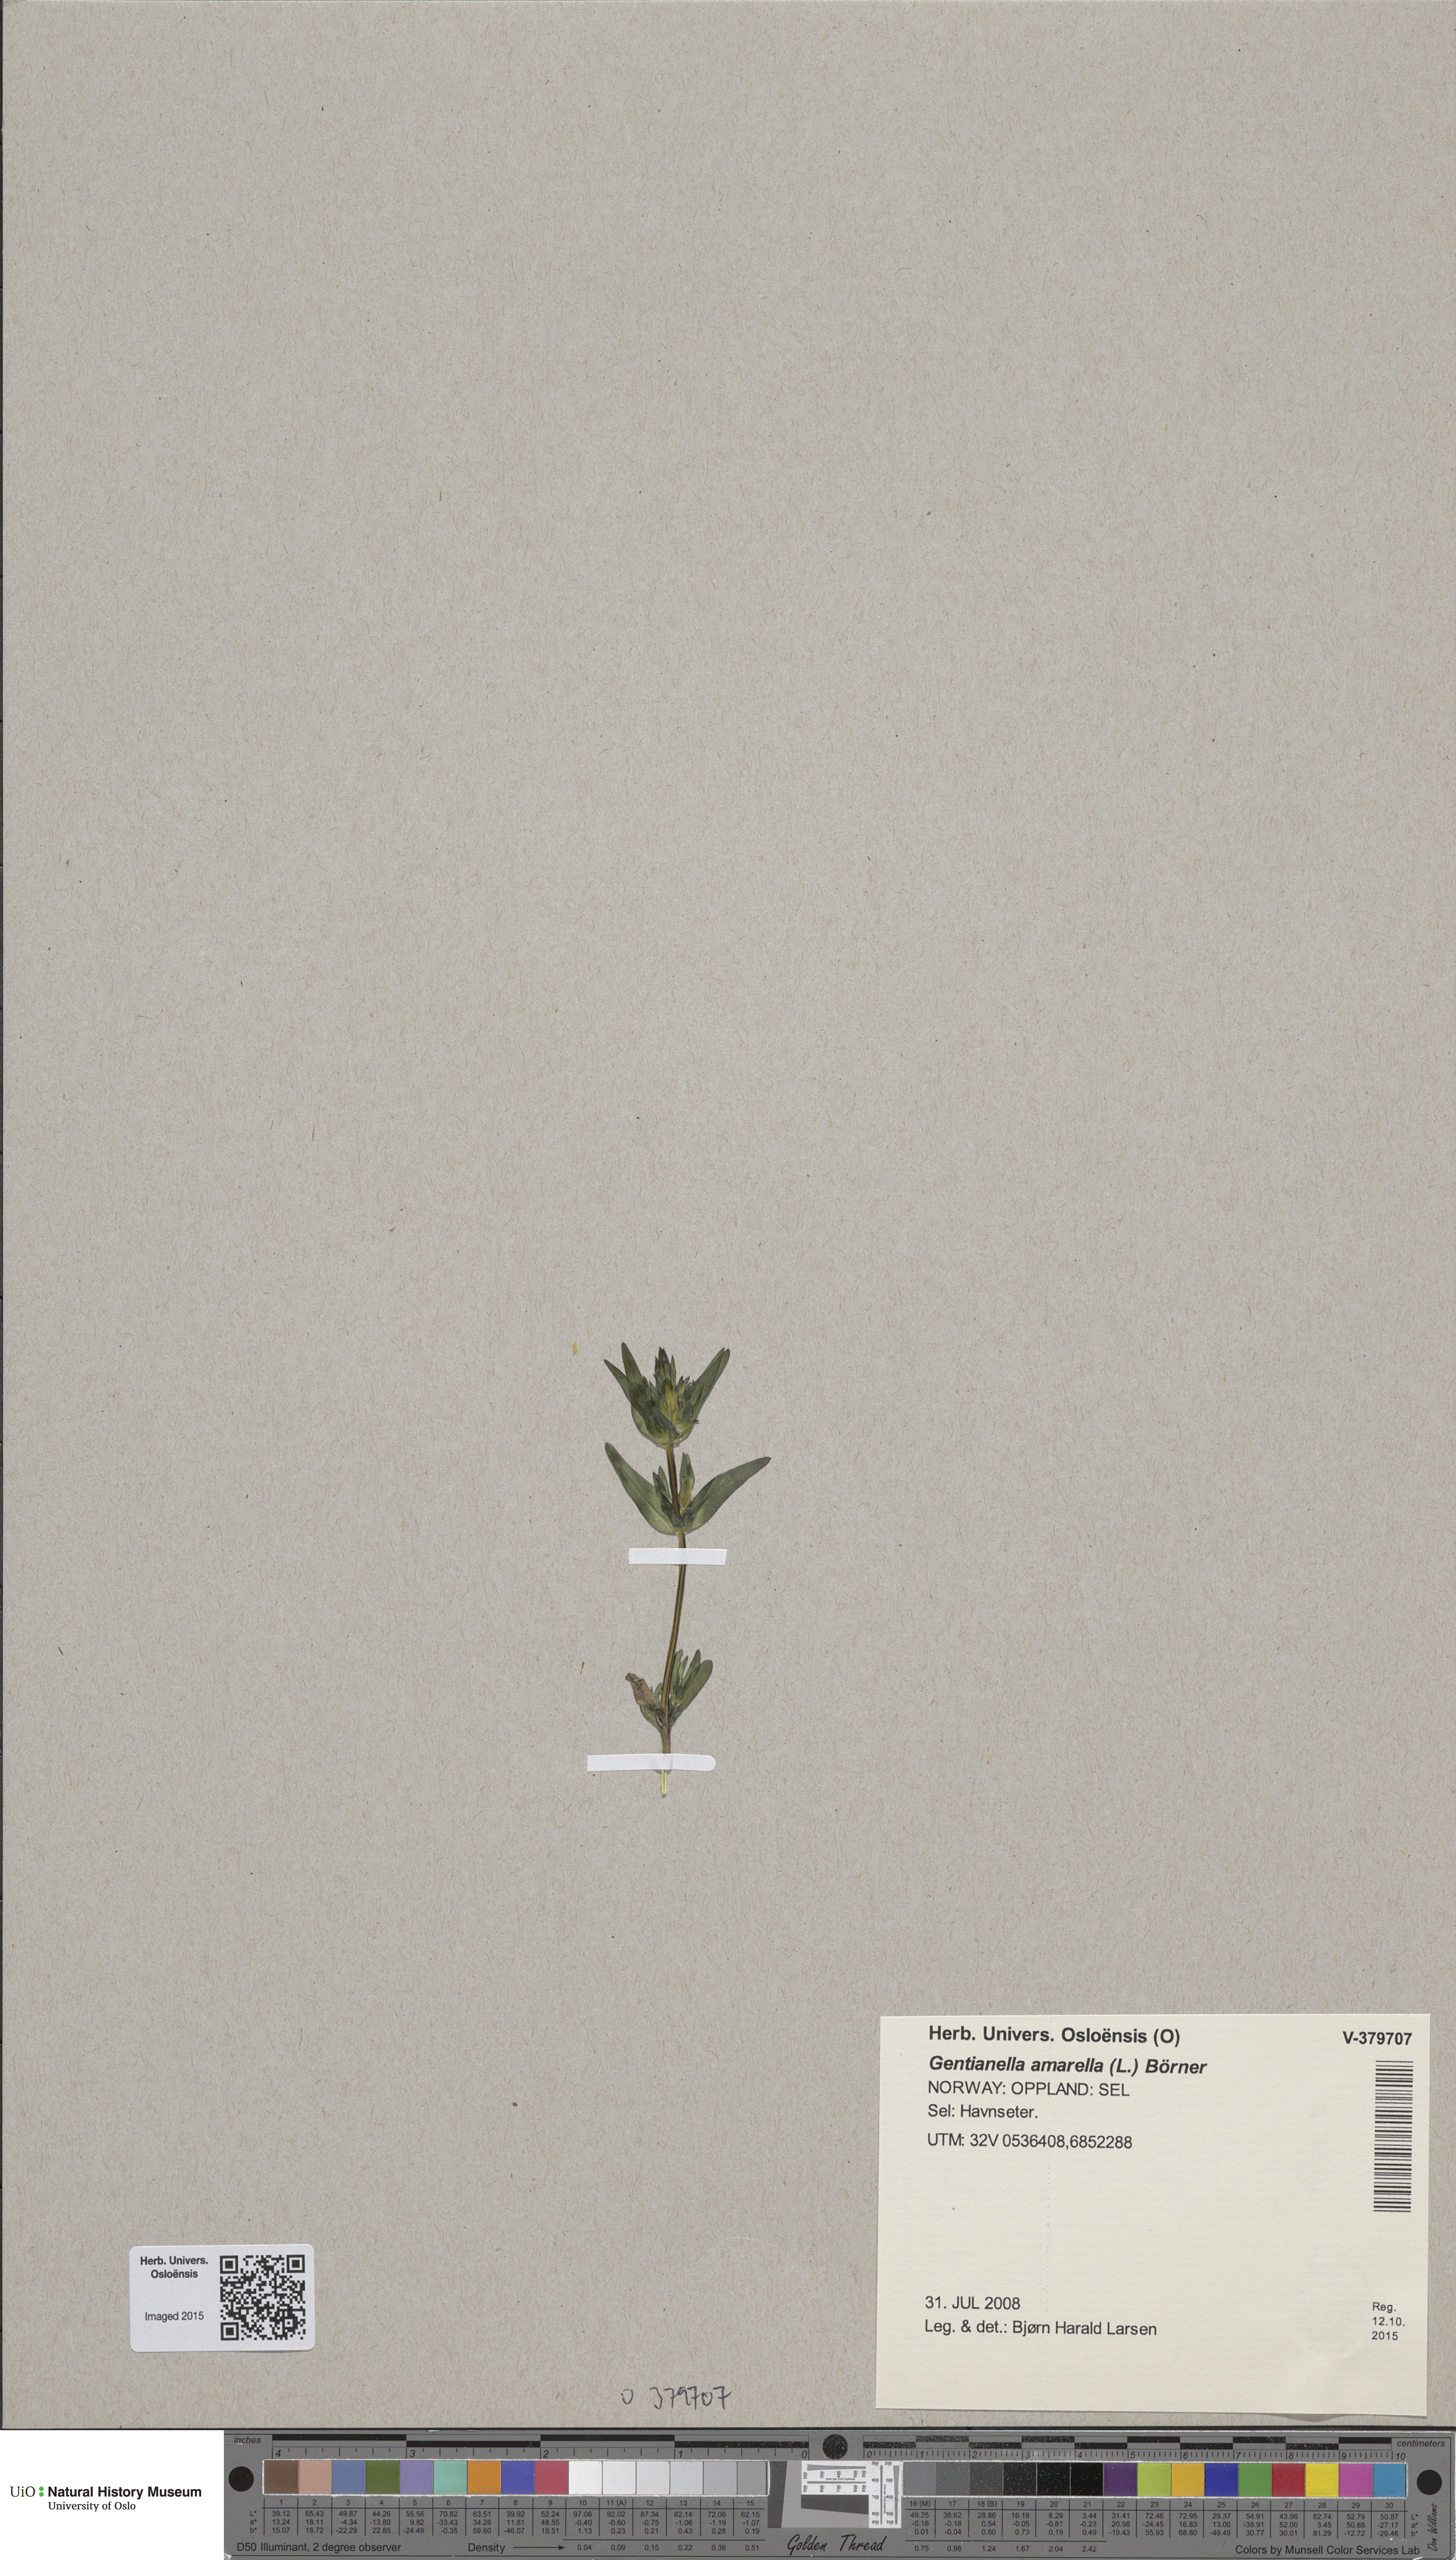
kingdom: Plantae
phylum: Tracheophyta
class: Magnoliopsida
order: Gentianales
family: Gentianaceae
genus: Gentianella
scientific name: Gentianella amarella
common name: Autumn gentian
